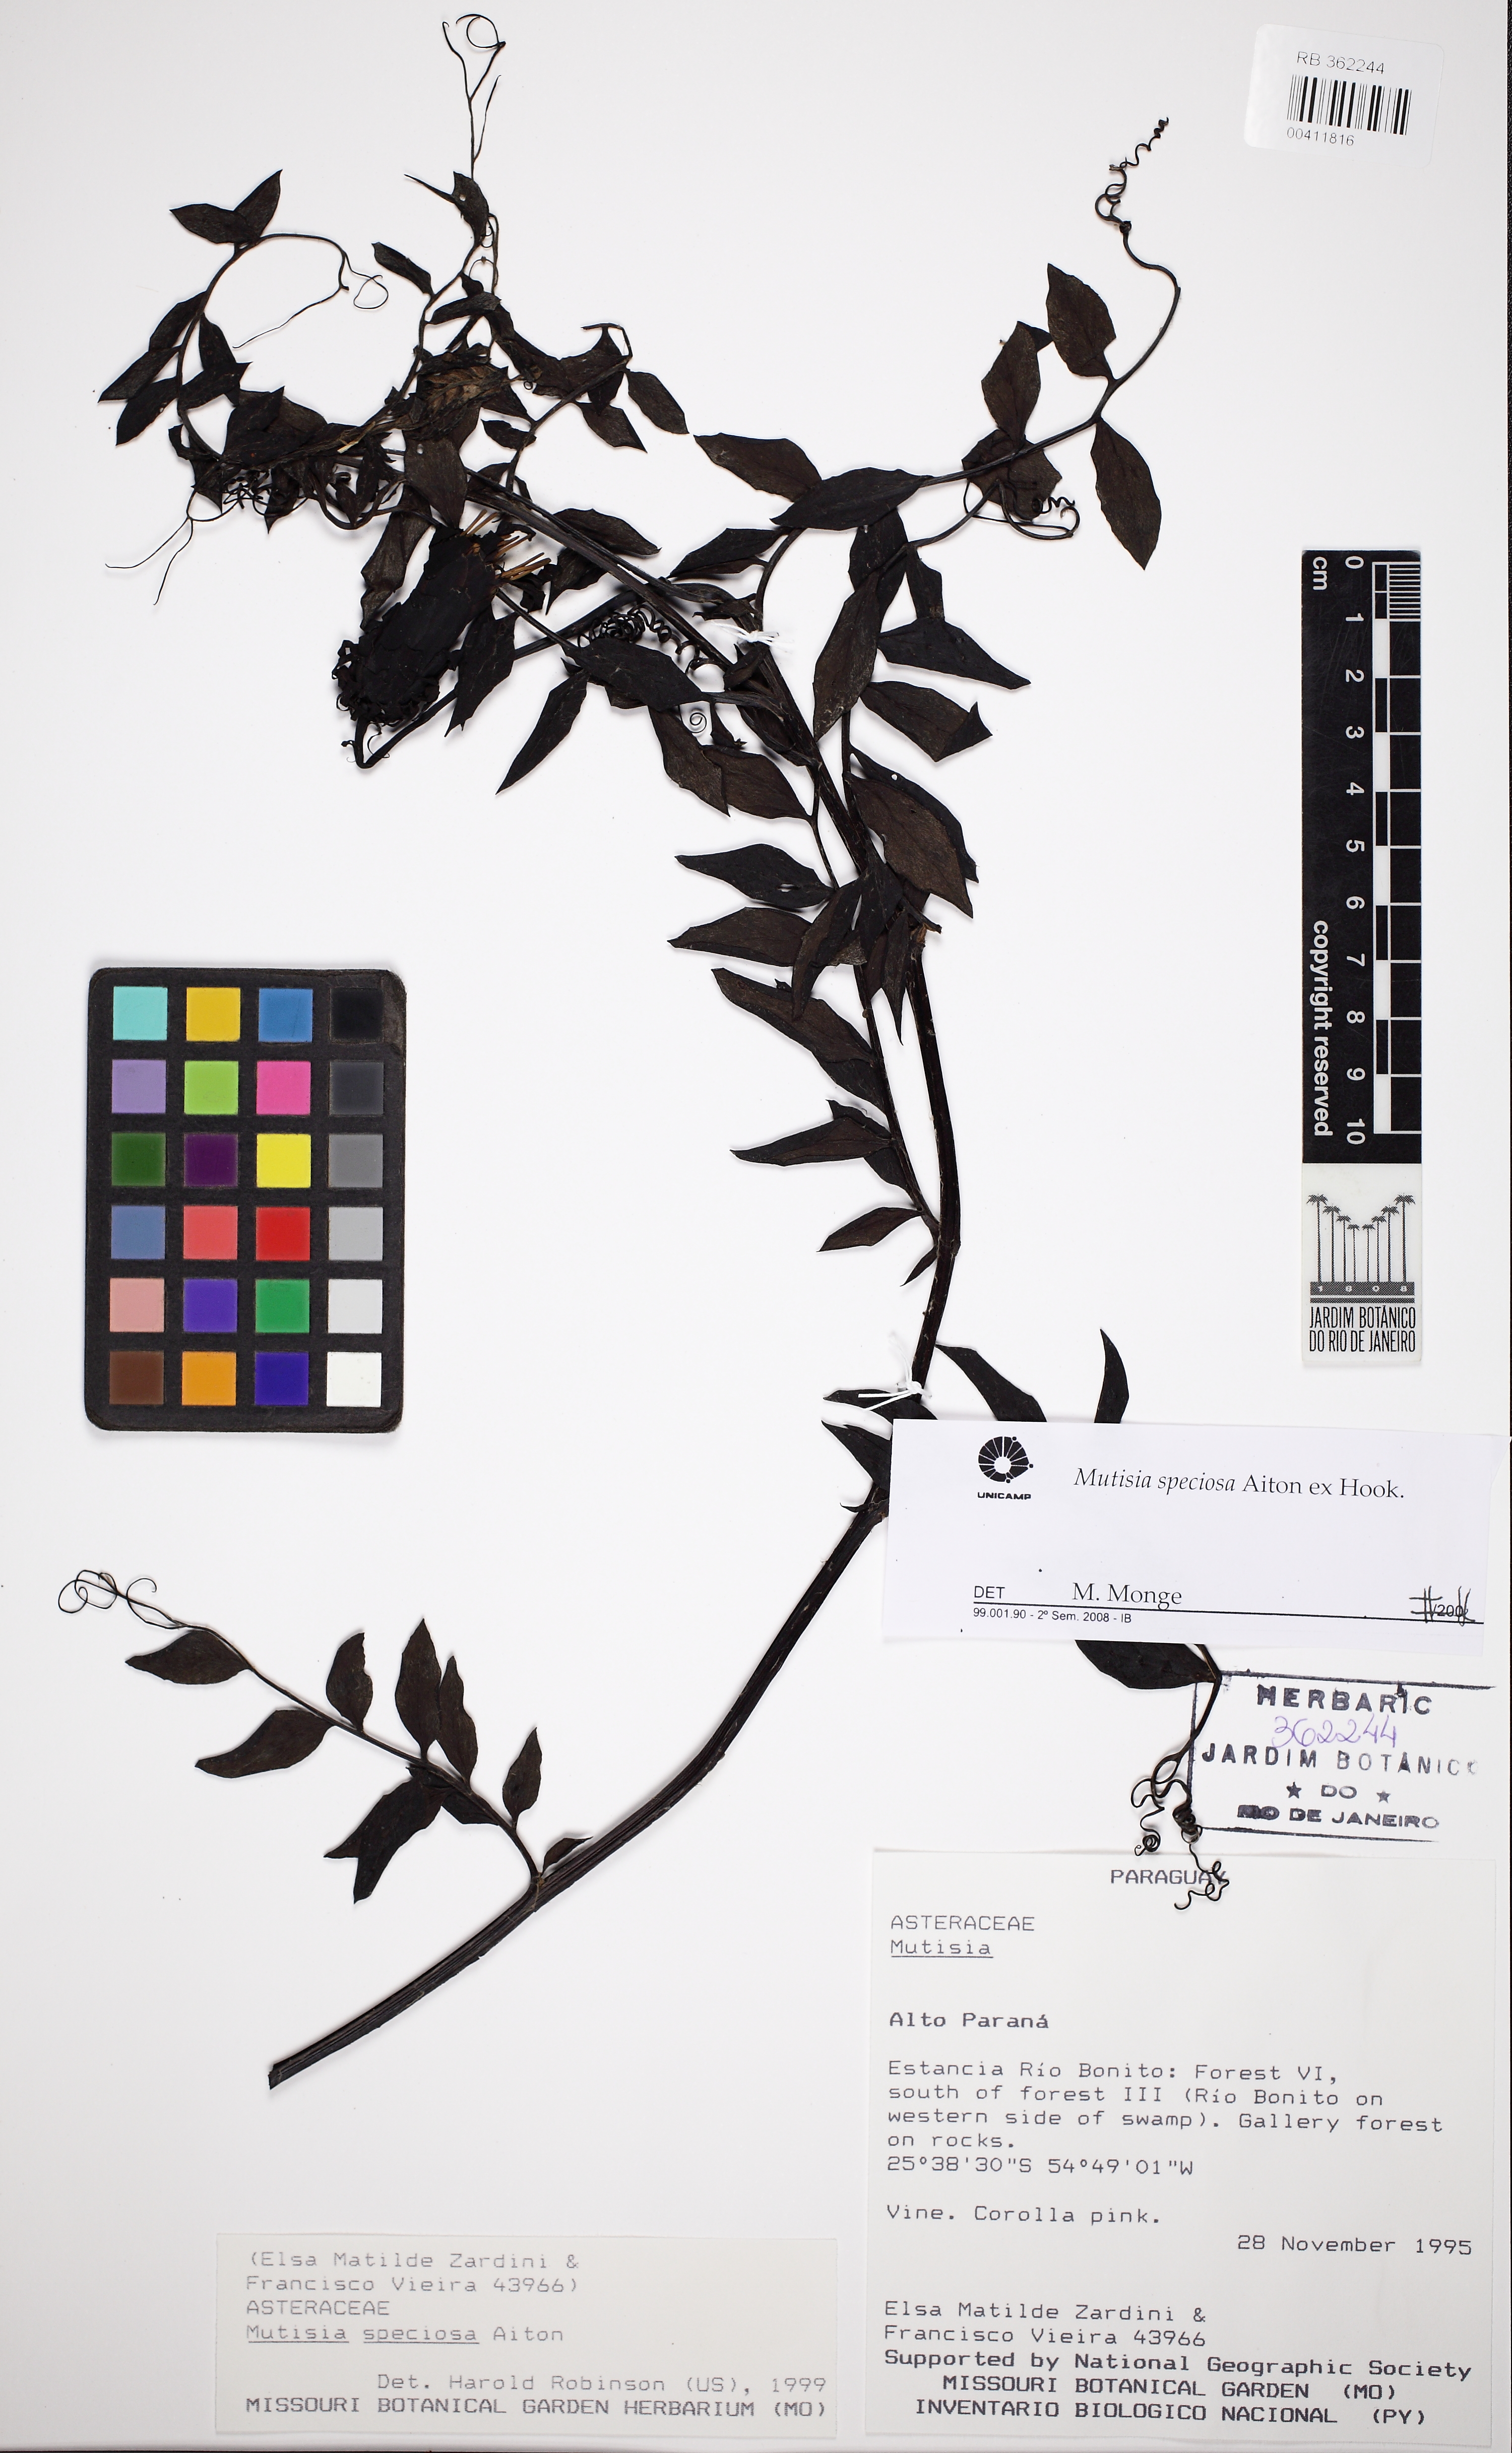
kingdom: Plantae
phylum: Tracheophyta
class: Magnoliopsida
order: Asterales
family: Asteraceae
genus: Mutisia
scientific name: Mutisia speciosa
